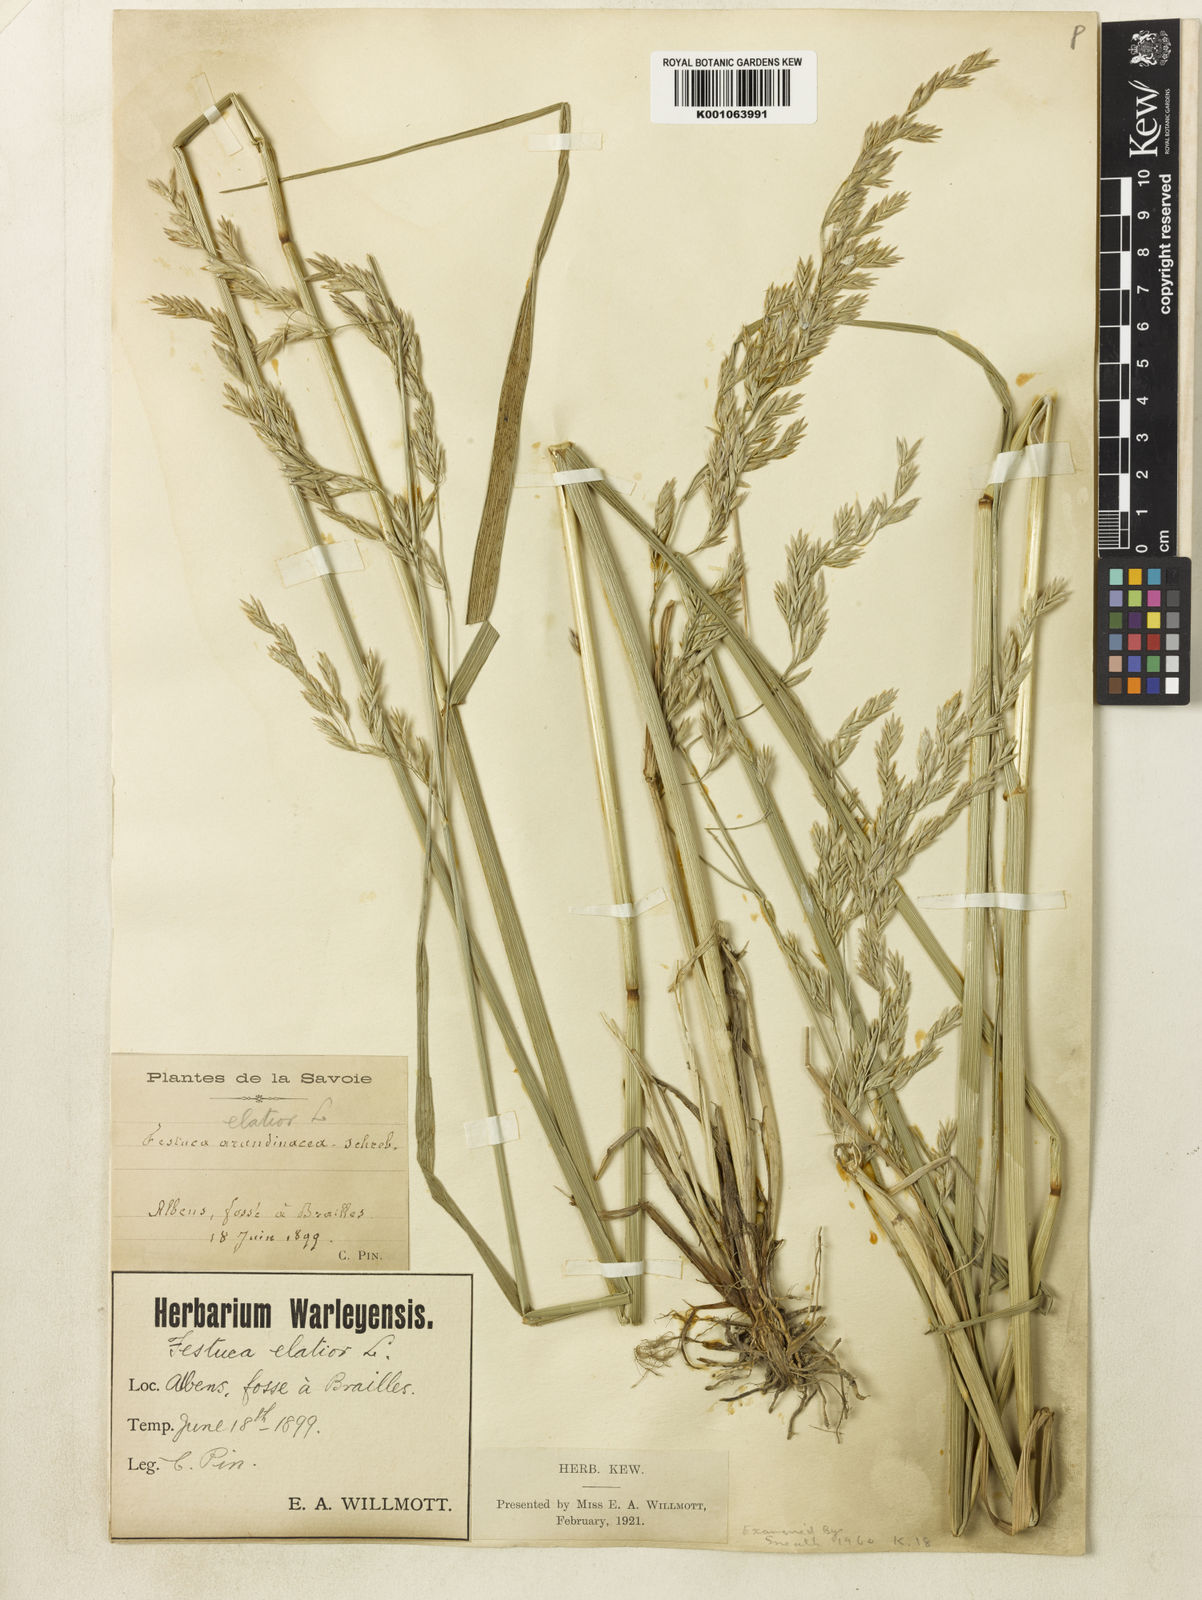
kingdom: Plantae
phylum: Tracheophyta
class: Liliopsida
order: Poales
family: Poaceae
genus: Lolium
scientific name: Lolium arundinaceum
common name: Reed fescue
